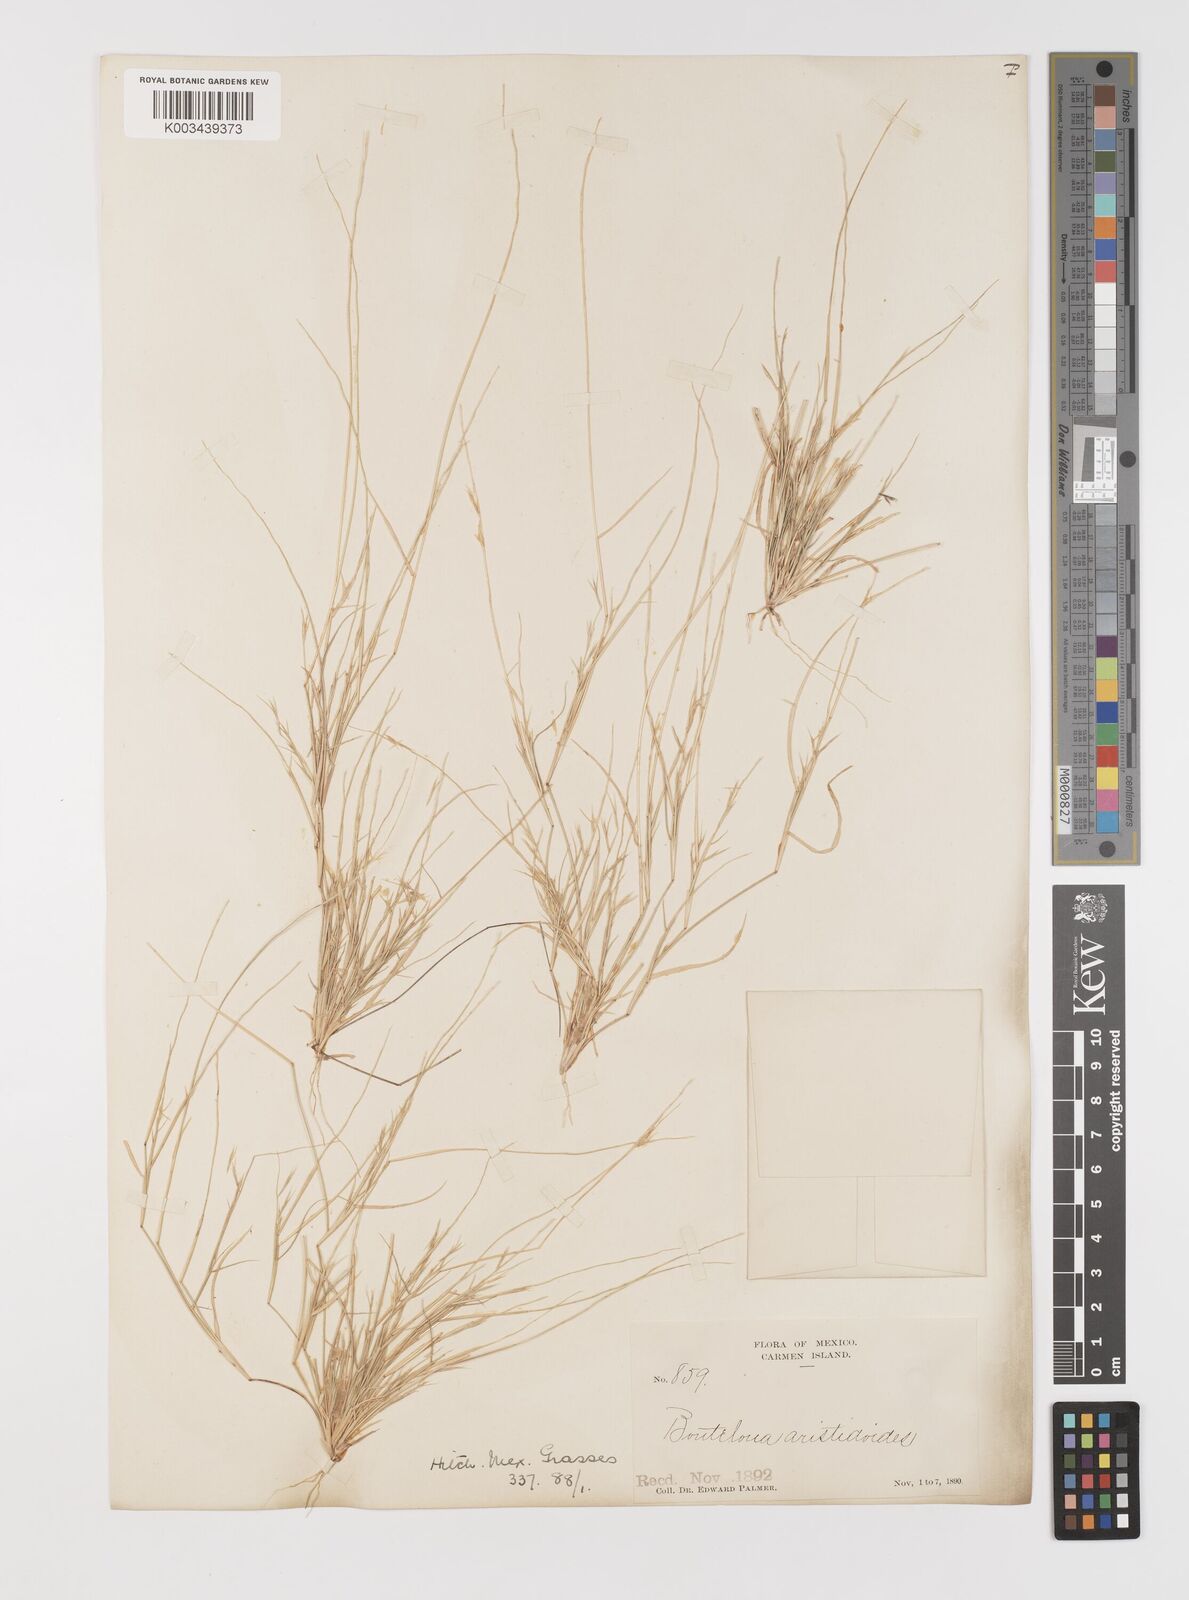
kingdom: Plantae
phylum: Tracheophyta
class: Liliopsida
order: Poales
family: Poaceae
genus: Bouteloua
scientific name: Bouteloua aristidoides
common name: Needle grama
